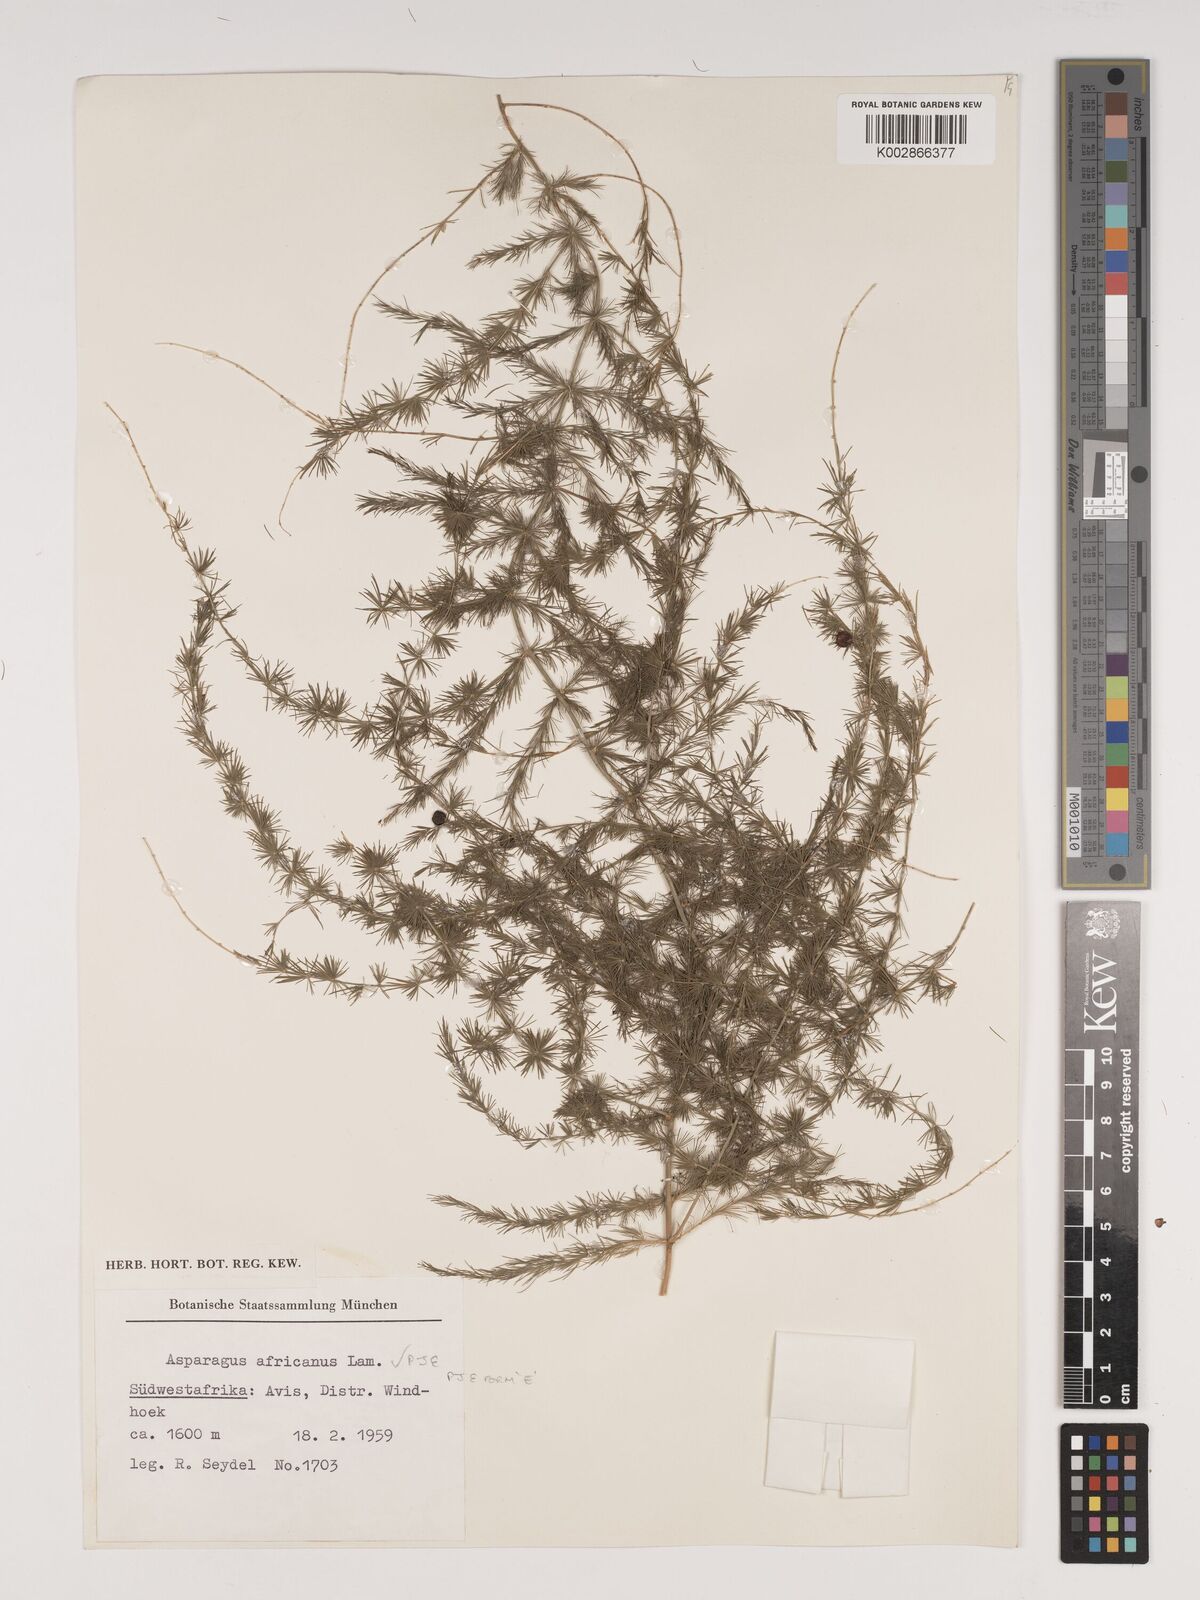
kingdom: Plantae
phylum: Tracheophyta
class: Liliopsida
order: Asparagales
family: Asparagaceae
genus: Asparagus
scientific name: Asparagus africanus
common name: Asparagus-fern
